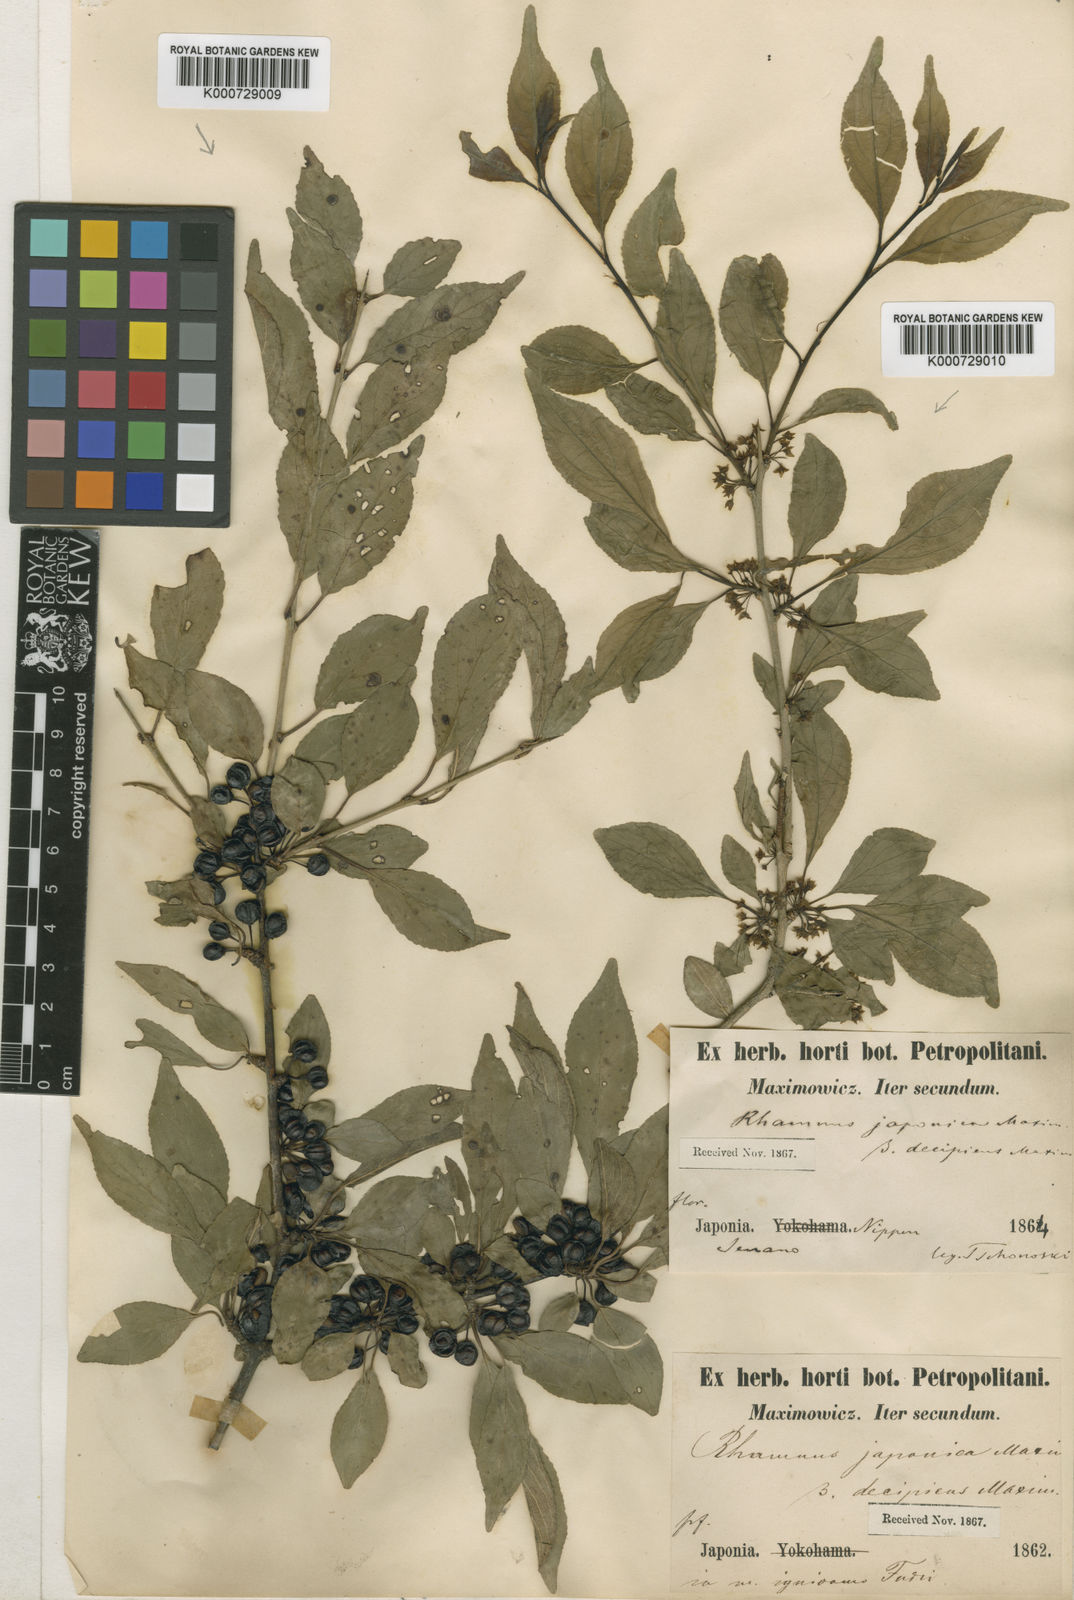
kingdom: Plantae
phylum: Tracheophyta
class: Magnoliopsida
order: Rosales
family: Rhamnaceae
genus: Rhamnus
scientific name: Rhamnus japonica
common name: Japanese buckthorn
